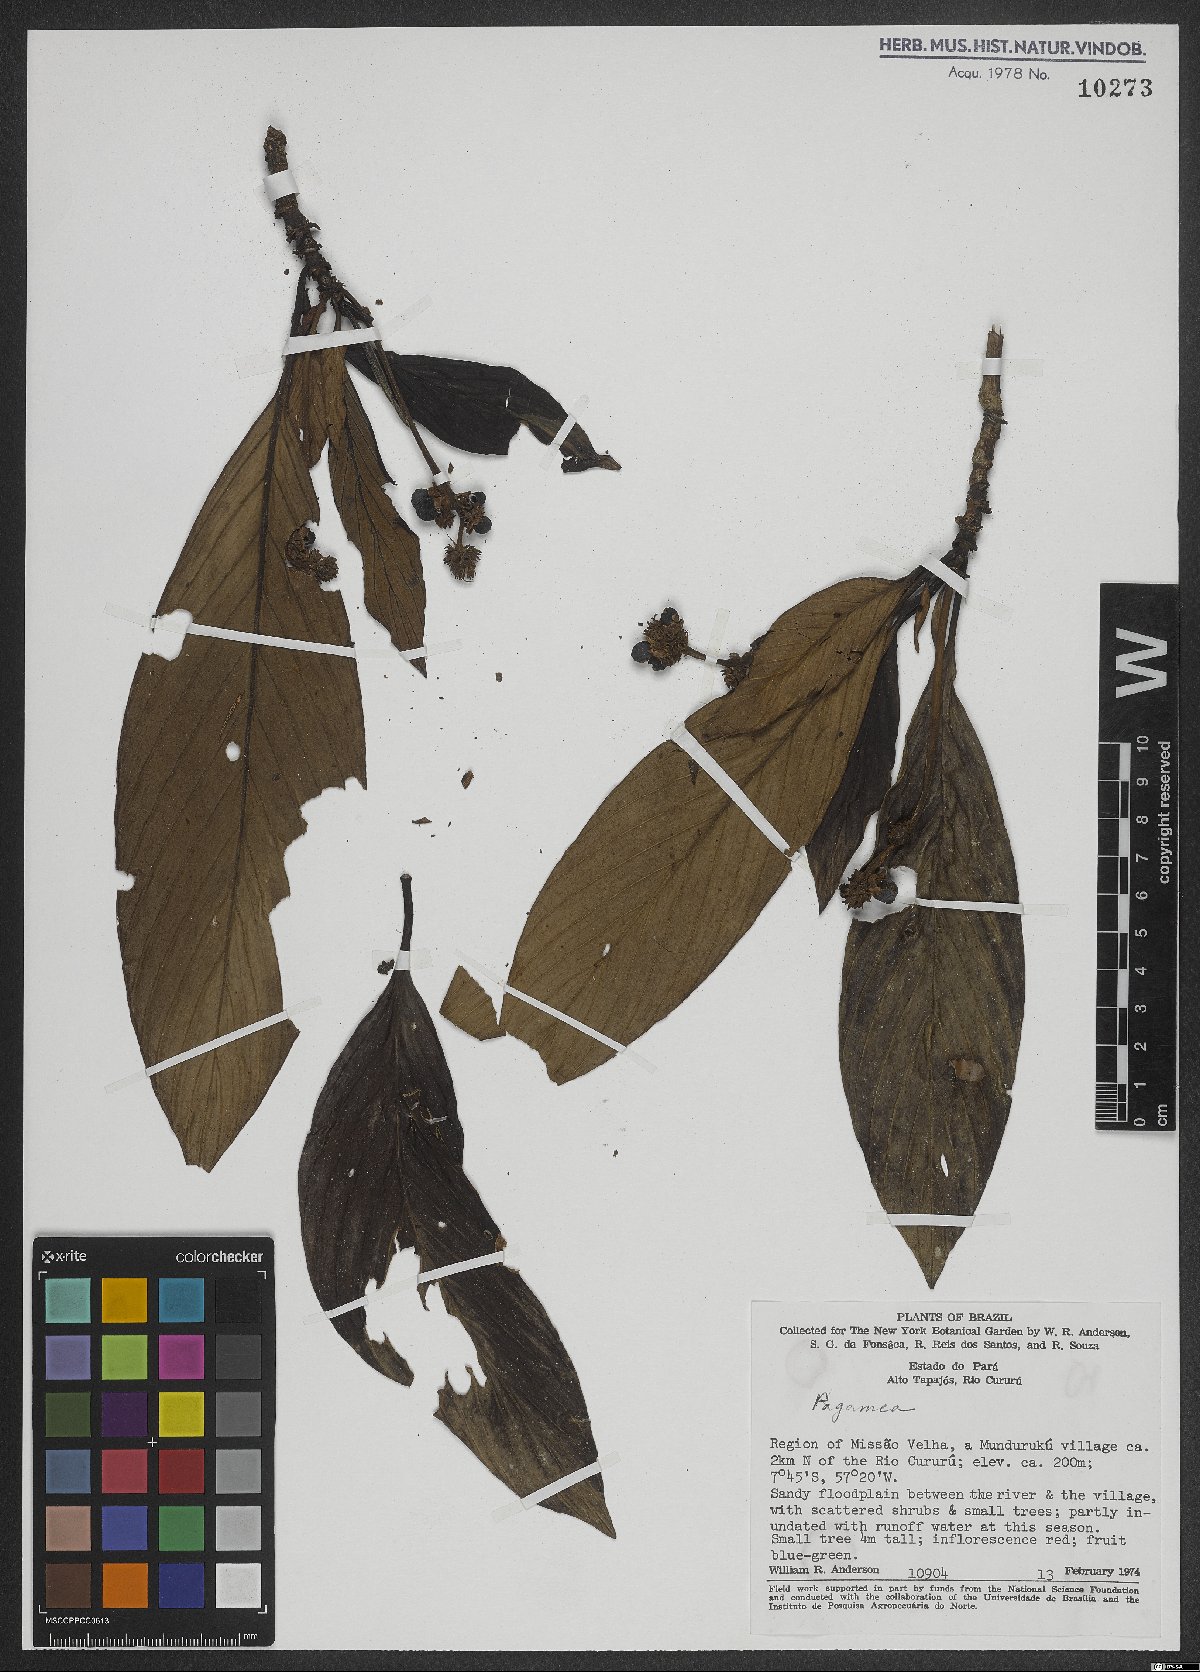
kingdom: Plantae
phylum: Tracheophyta
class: Magnoliopsida
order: Gentianales
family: Rubiaceae
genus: Pagamea
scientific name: Pagamea
